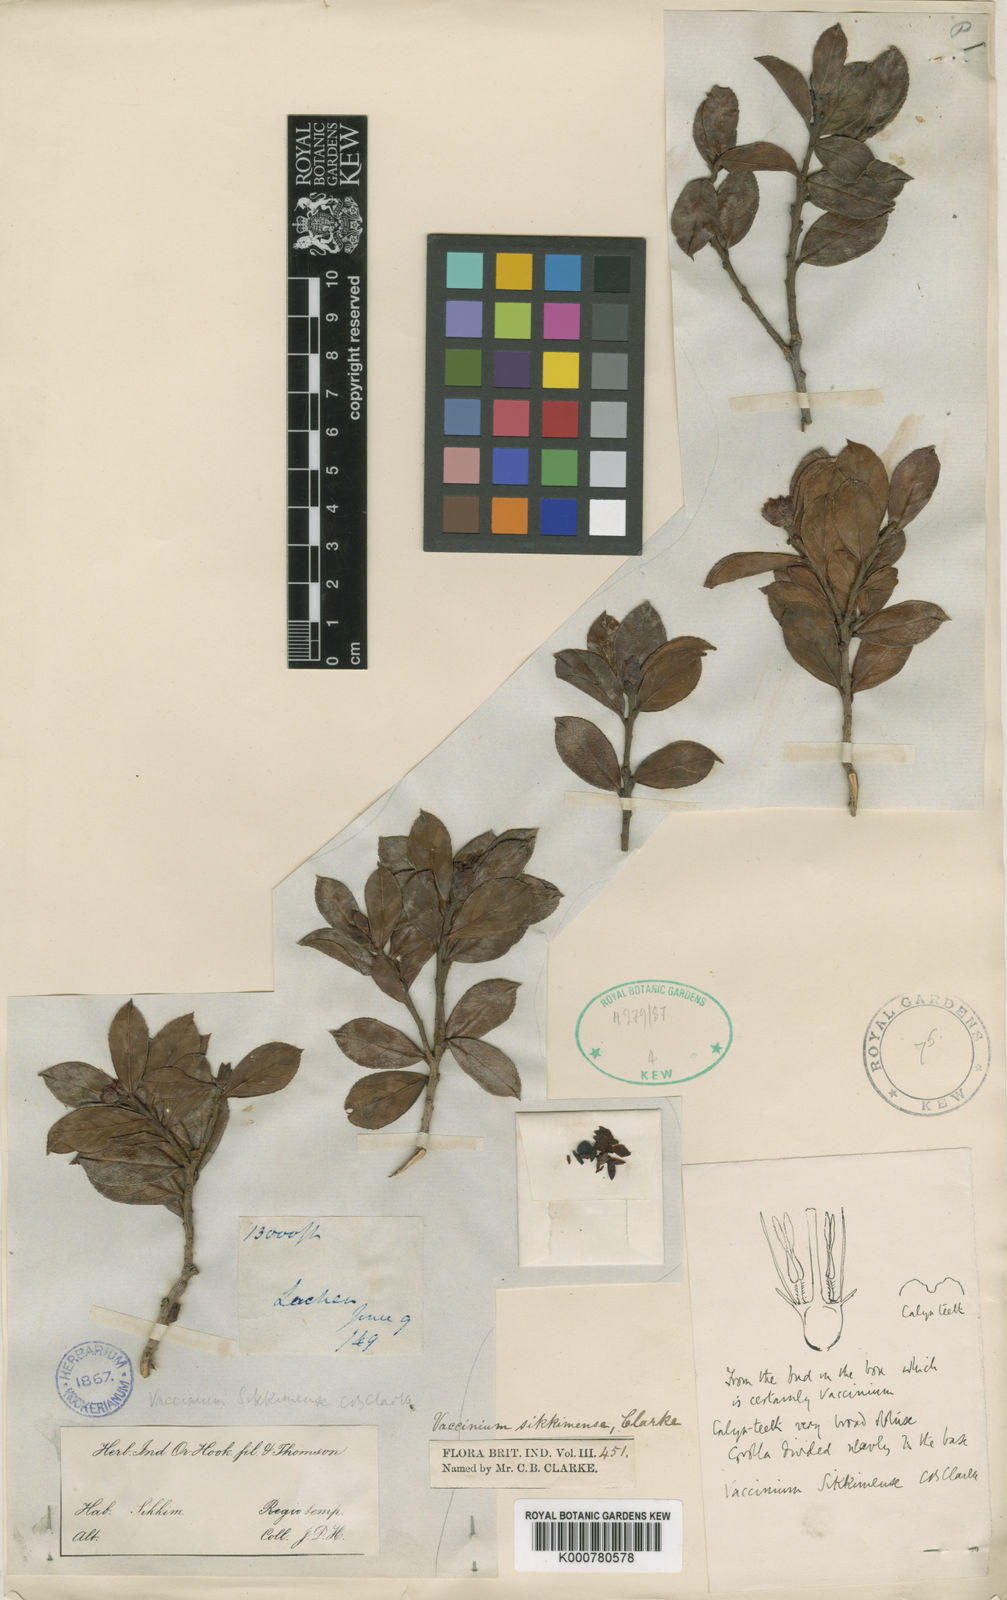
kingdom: Plantae
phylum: Tracheophyta
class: Magnoliopsida
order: Ericales
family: Ericaceae
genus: Vaccinium
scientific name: Vaccinium sikkimense
